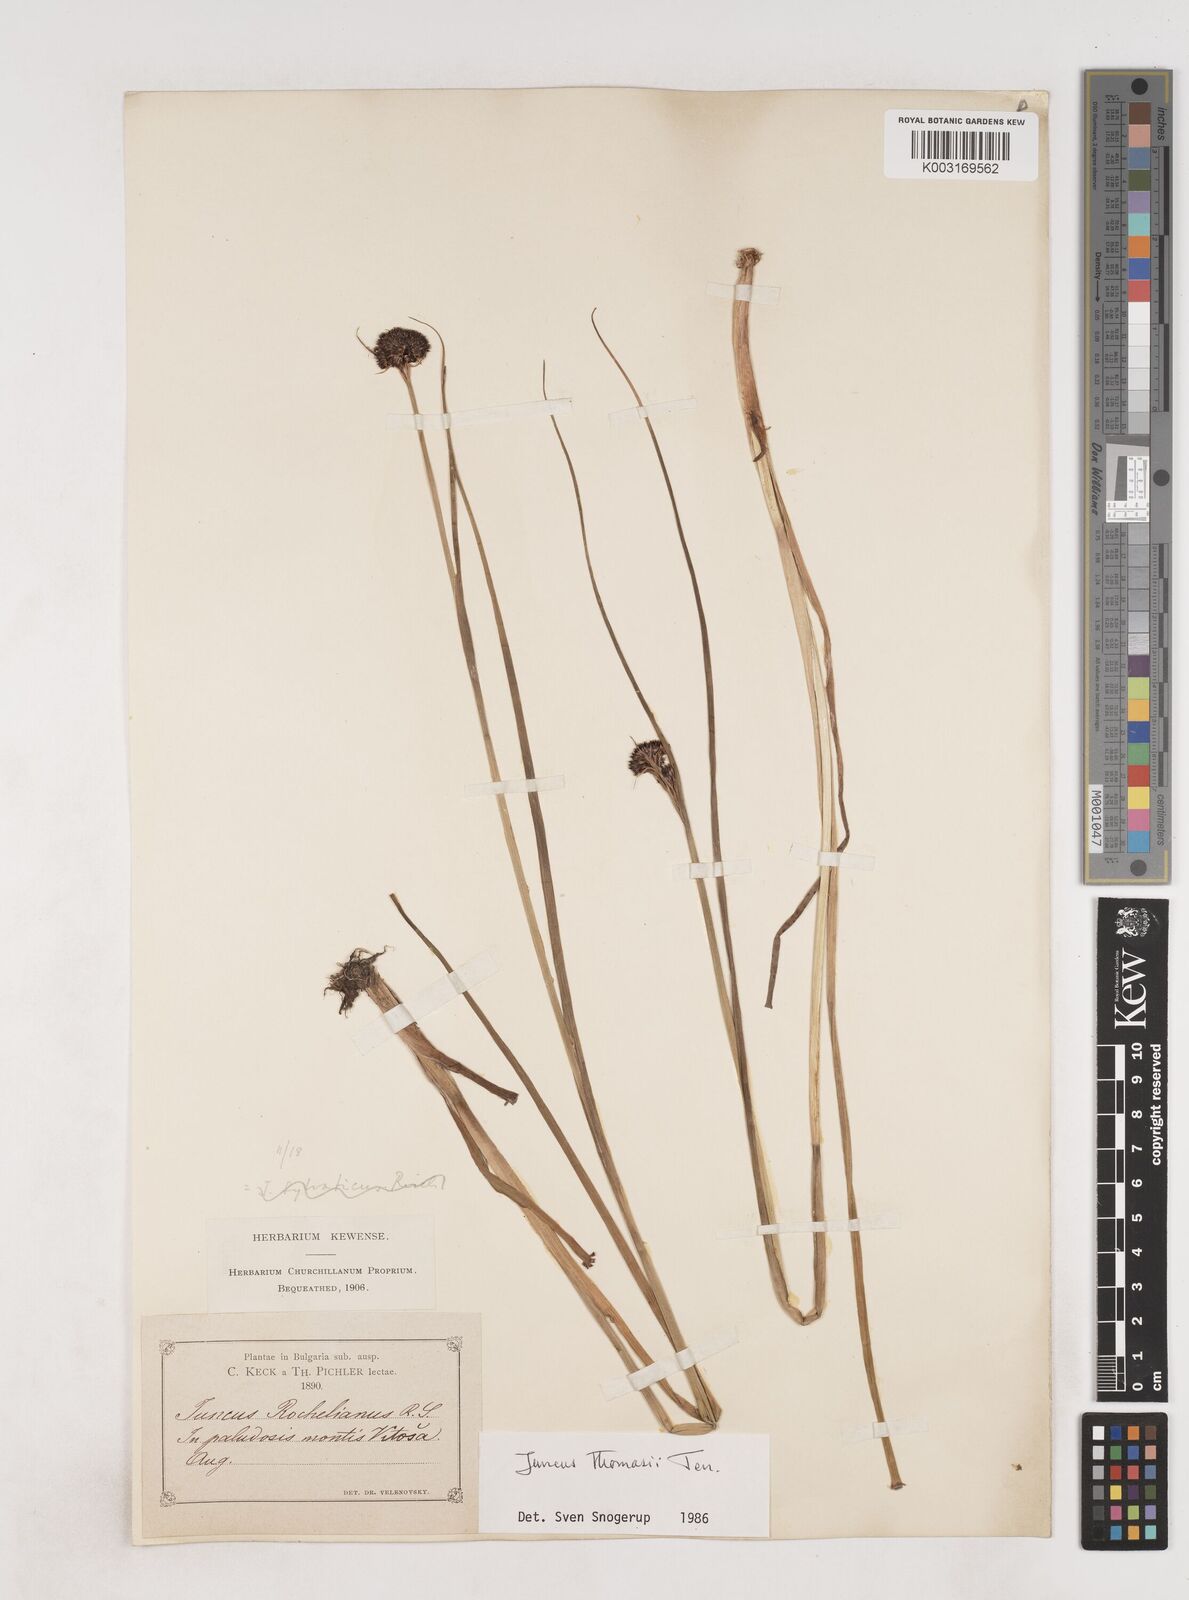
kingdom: Plantae
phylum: Tracheophyta
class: Liliopsida
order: Poales
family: Juncaceae
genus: Juncus
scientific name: Juncus alpigenus
